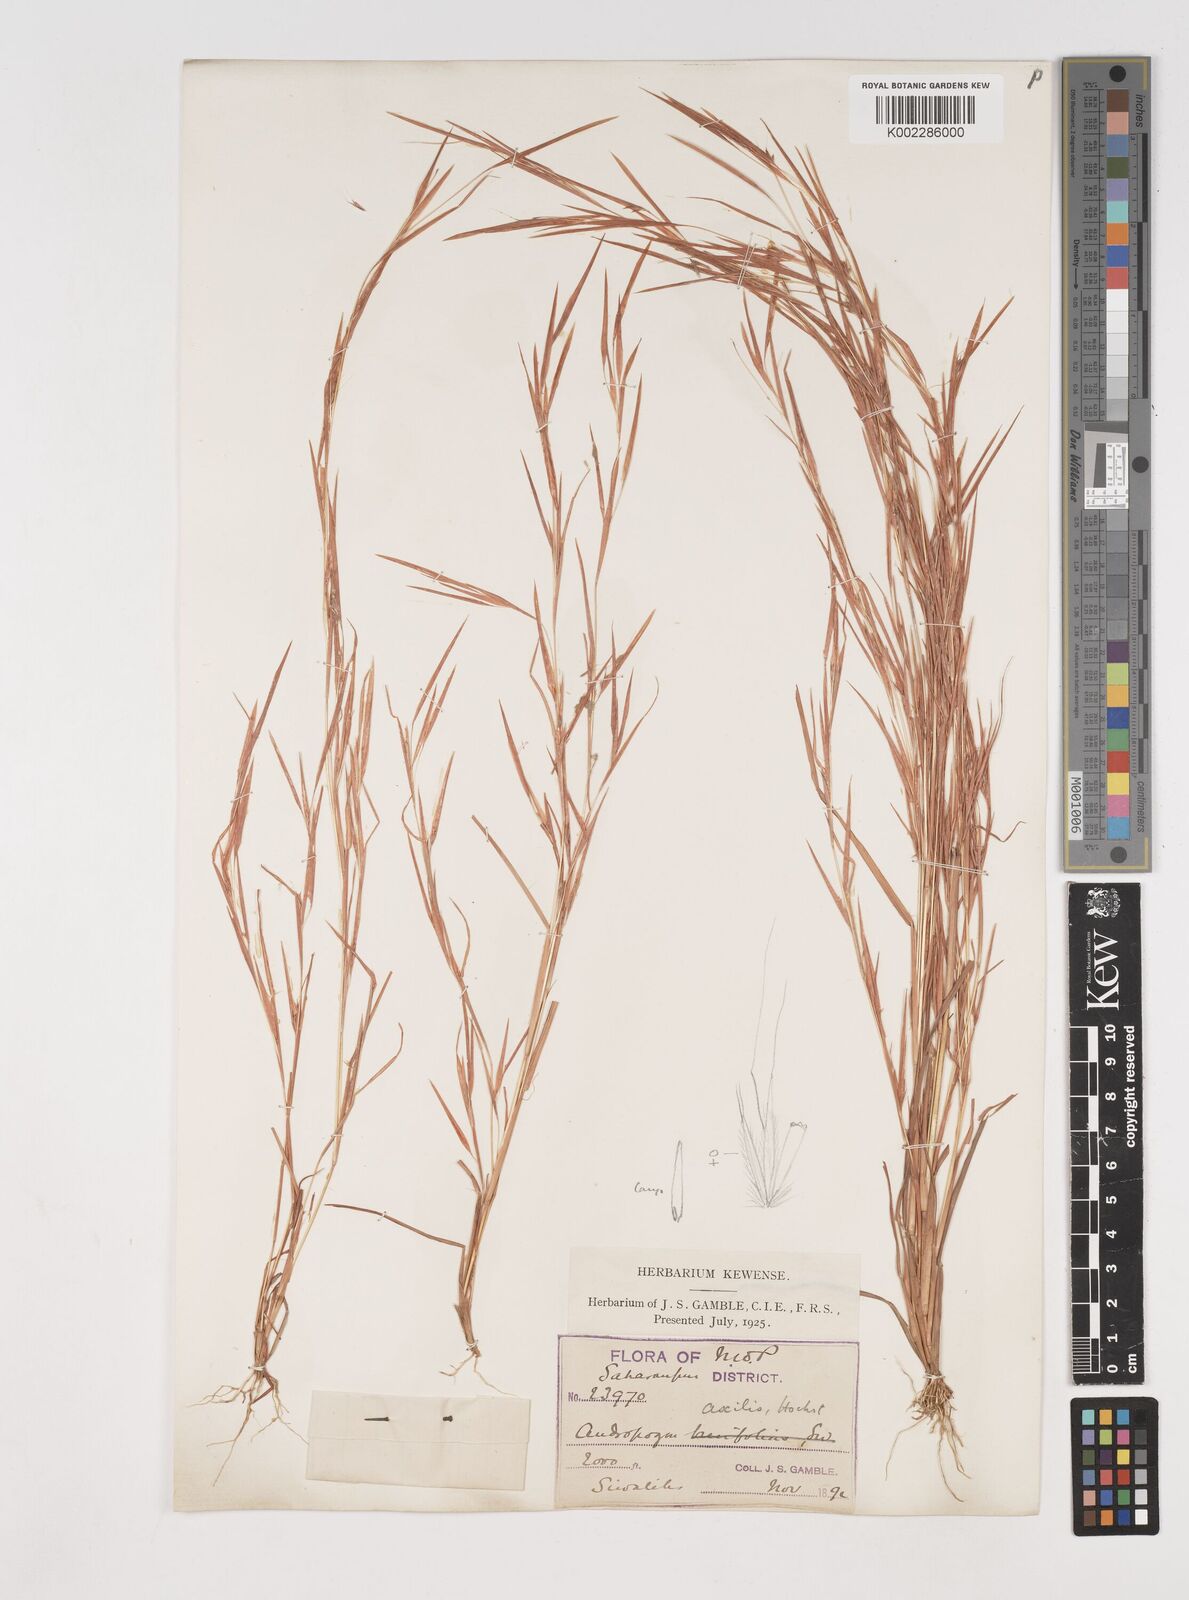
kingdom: Plantae
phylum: Tracheophyta
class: Liliopsida
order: Poales
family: Poaceae
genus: Schizachyrium
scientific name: Schizachyrium exile
